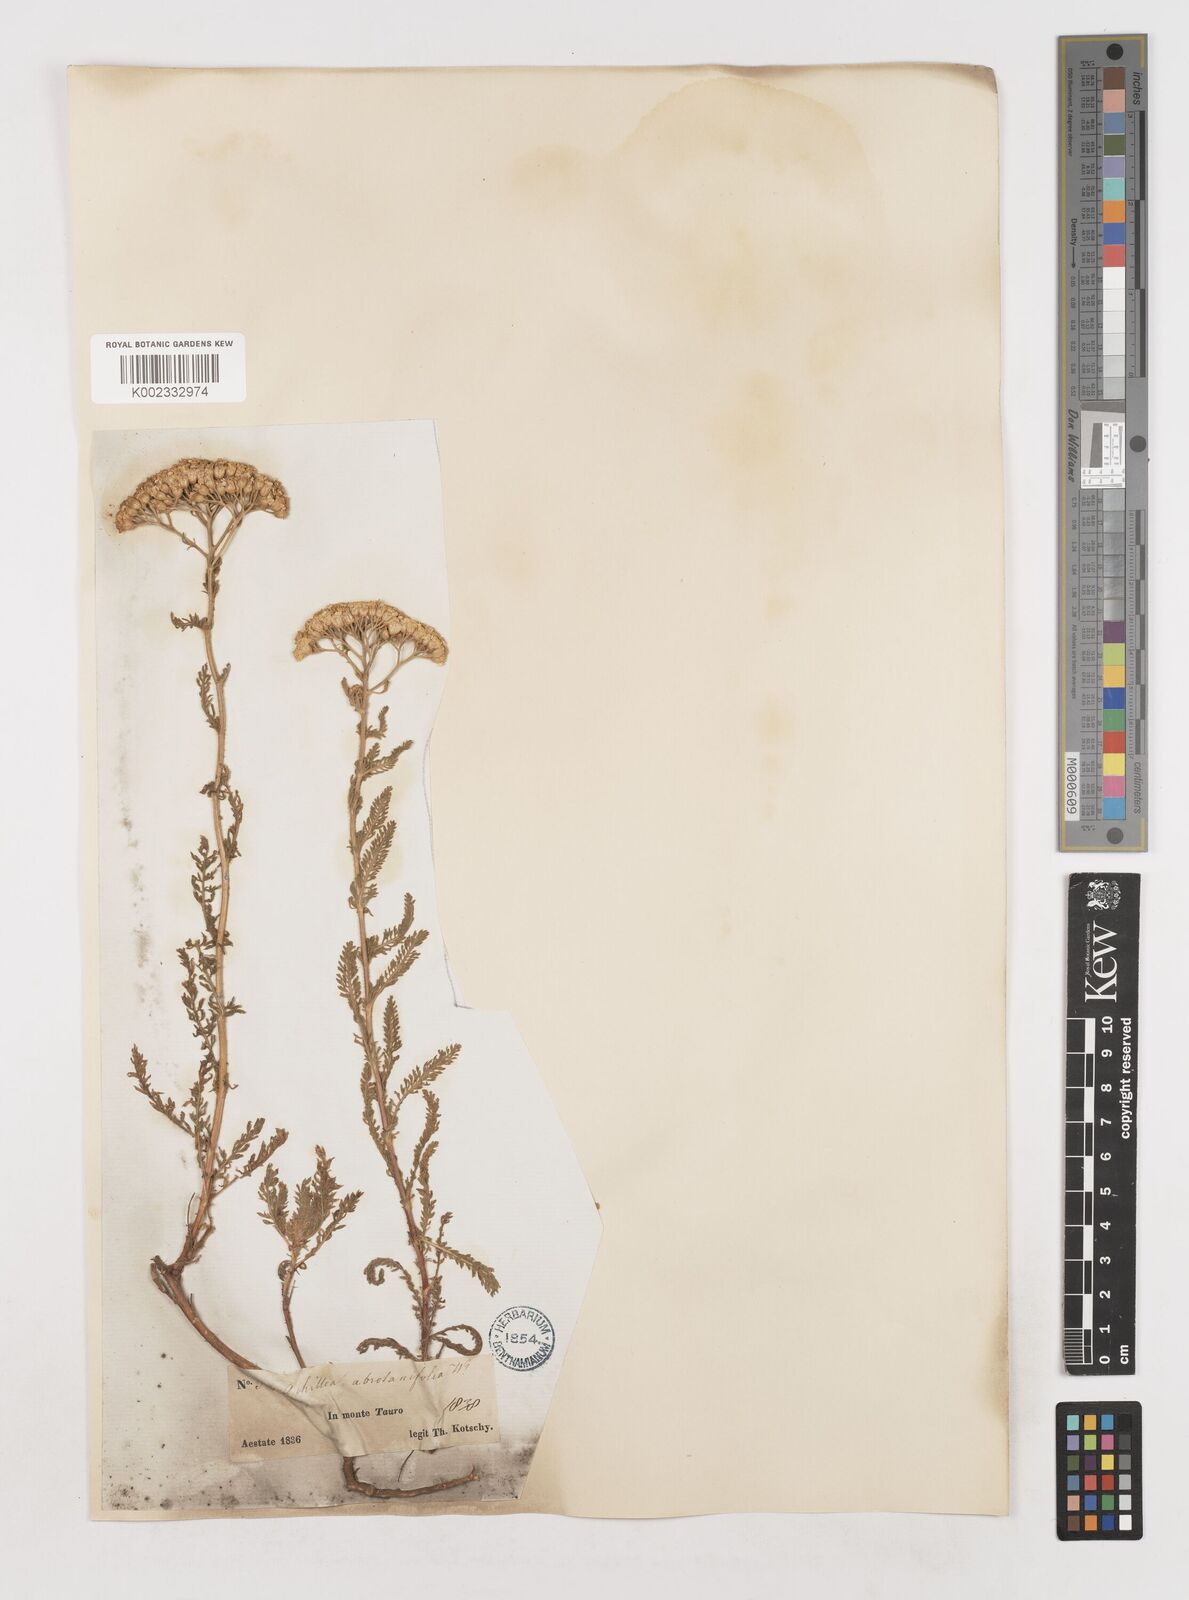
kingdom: Plantae
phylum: Tracheophyta
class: Magnoliopsida
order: Asterales
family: Asteraceae
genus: Achillea
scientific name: Achillea arabica
